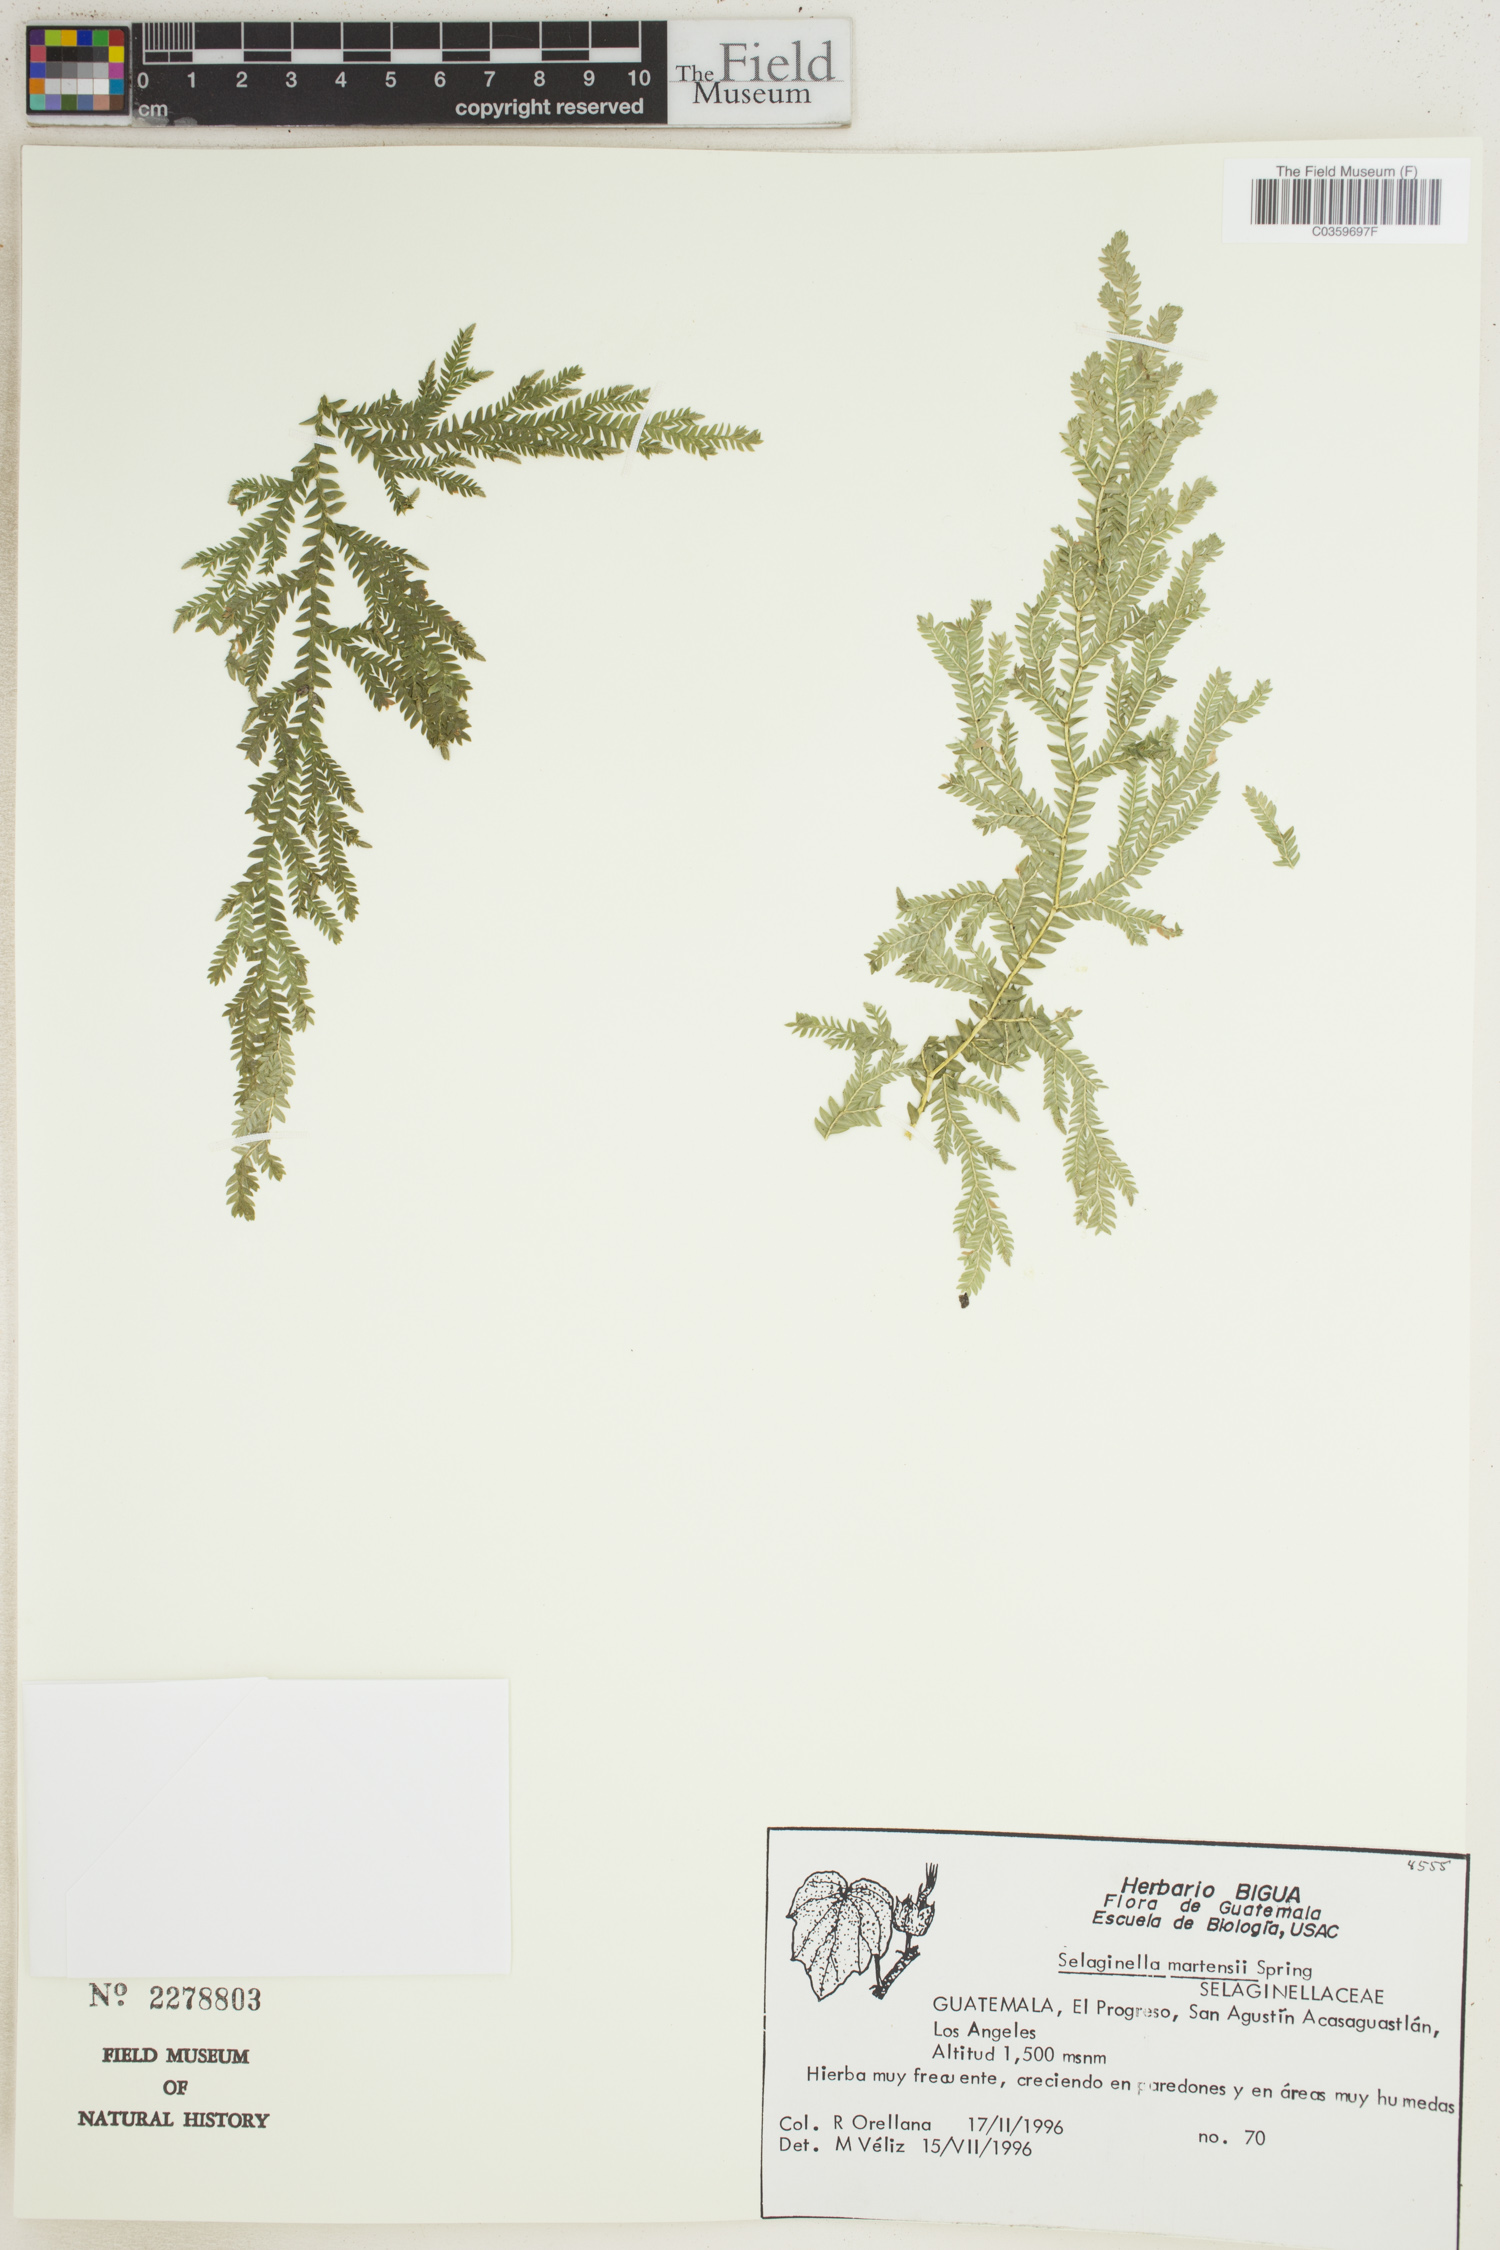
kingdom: Plantae
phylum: Tracheophyta
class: Lycopodiopsida
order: Selaginellales
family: Selaginellaceae
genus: Selaginella
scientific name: Selaginella martensii
